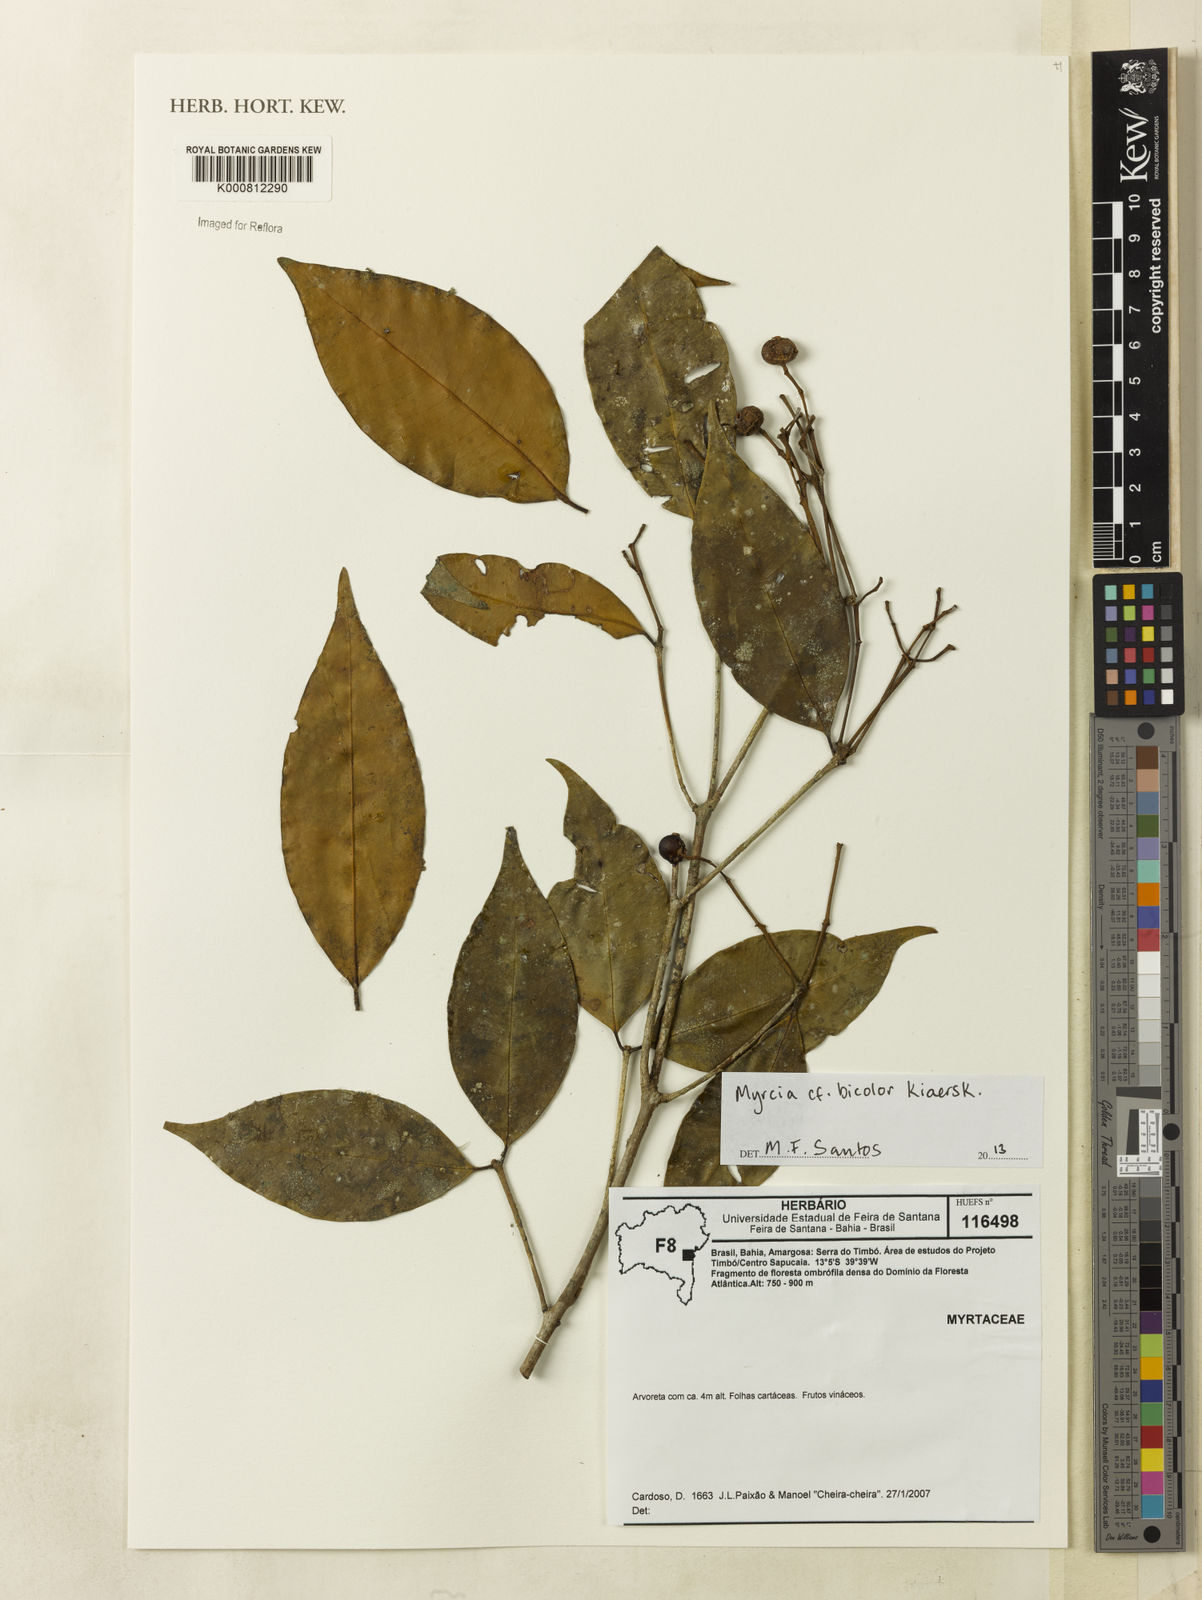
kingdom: Plantae
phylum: Tracheophyta
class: Magnoliopsida
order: Myrtales
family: Myrtaceae
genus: Myrcia
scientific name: Myrcia subterminalis
